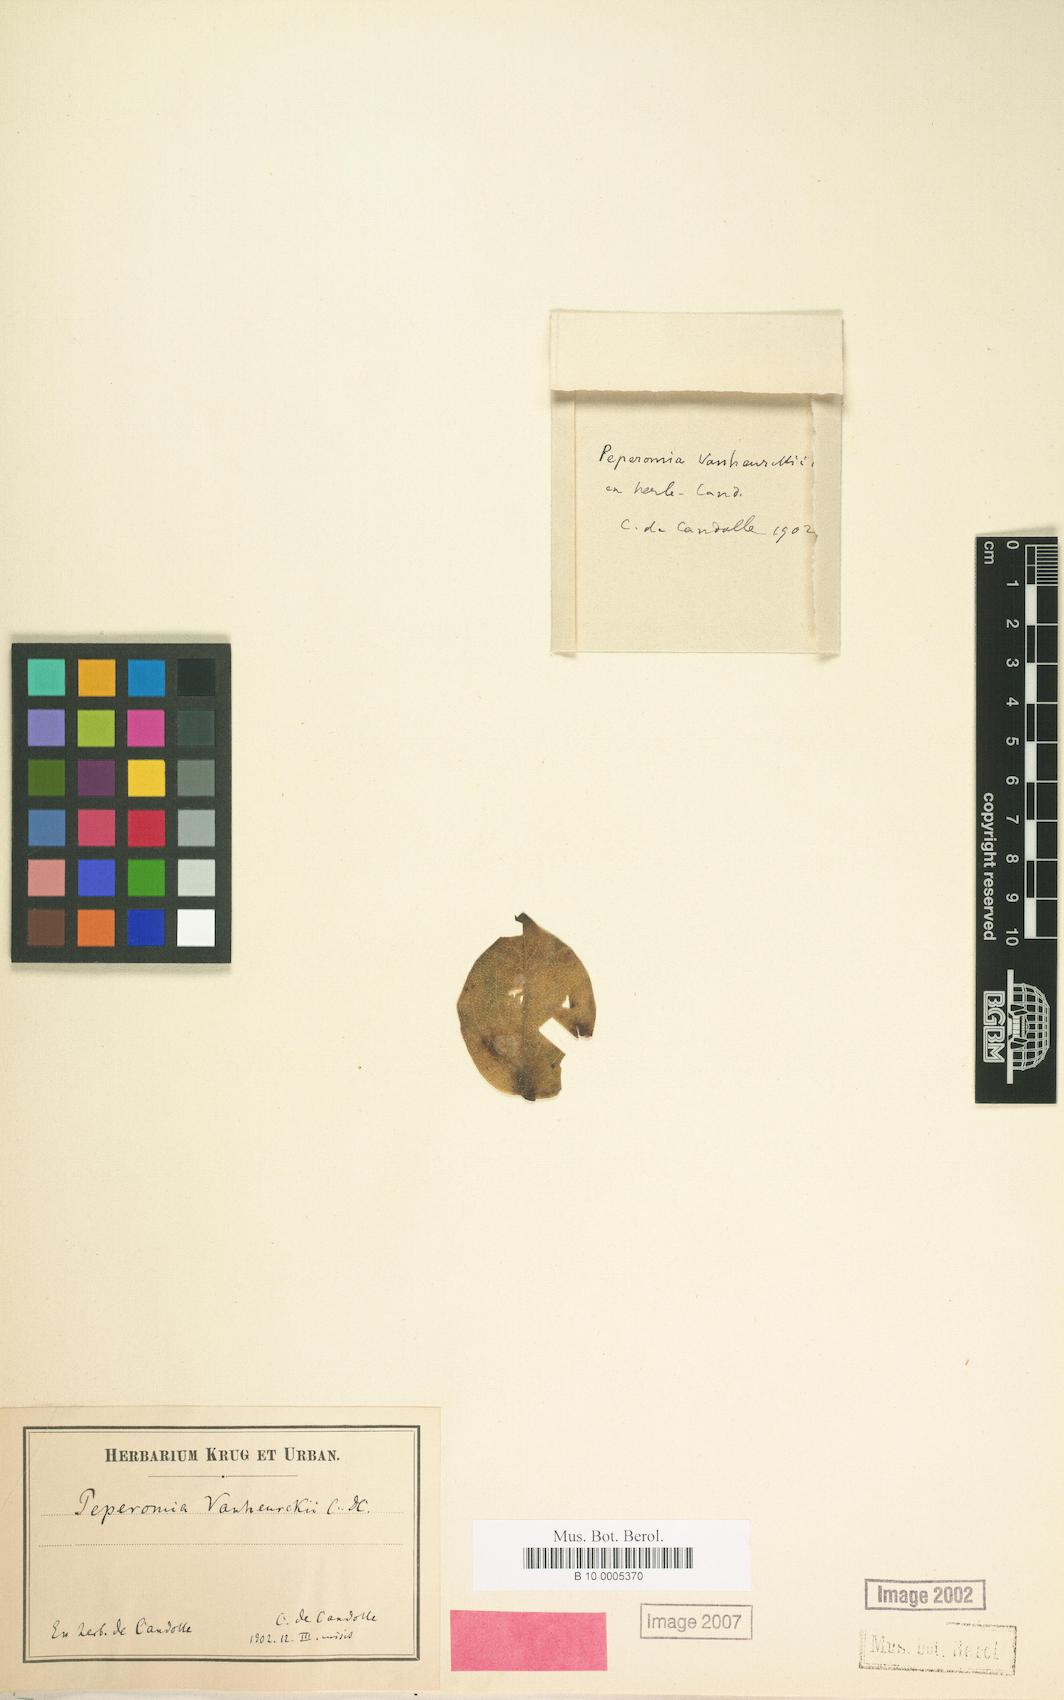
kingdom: Plantae
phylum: Tracheophyta
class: Magnoliopsida
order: Piperales
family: Piperaceae
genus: Peperomia
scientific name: Peperomia myrtifolia
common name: Myrtleleaf peperomia
